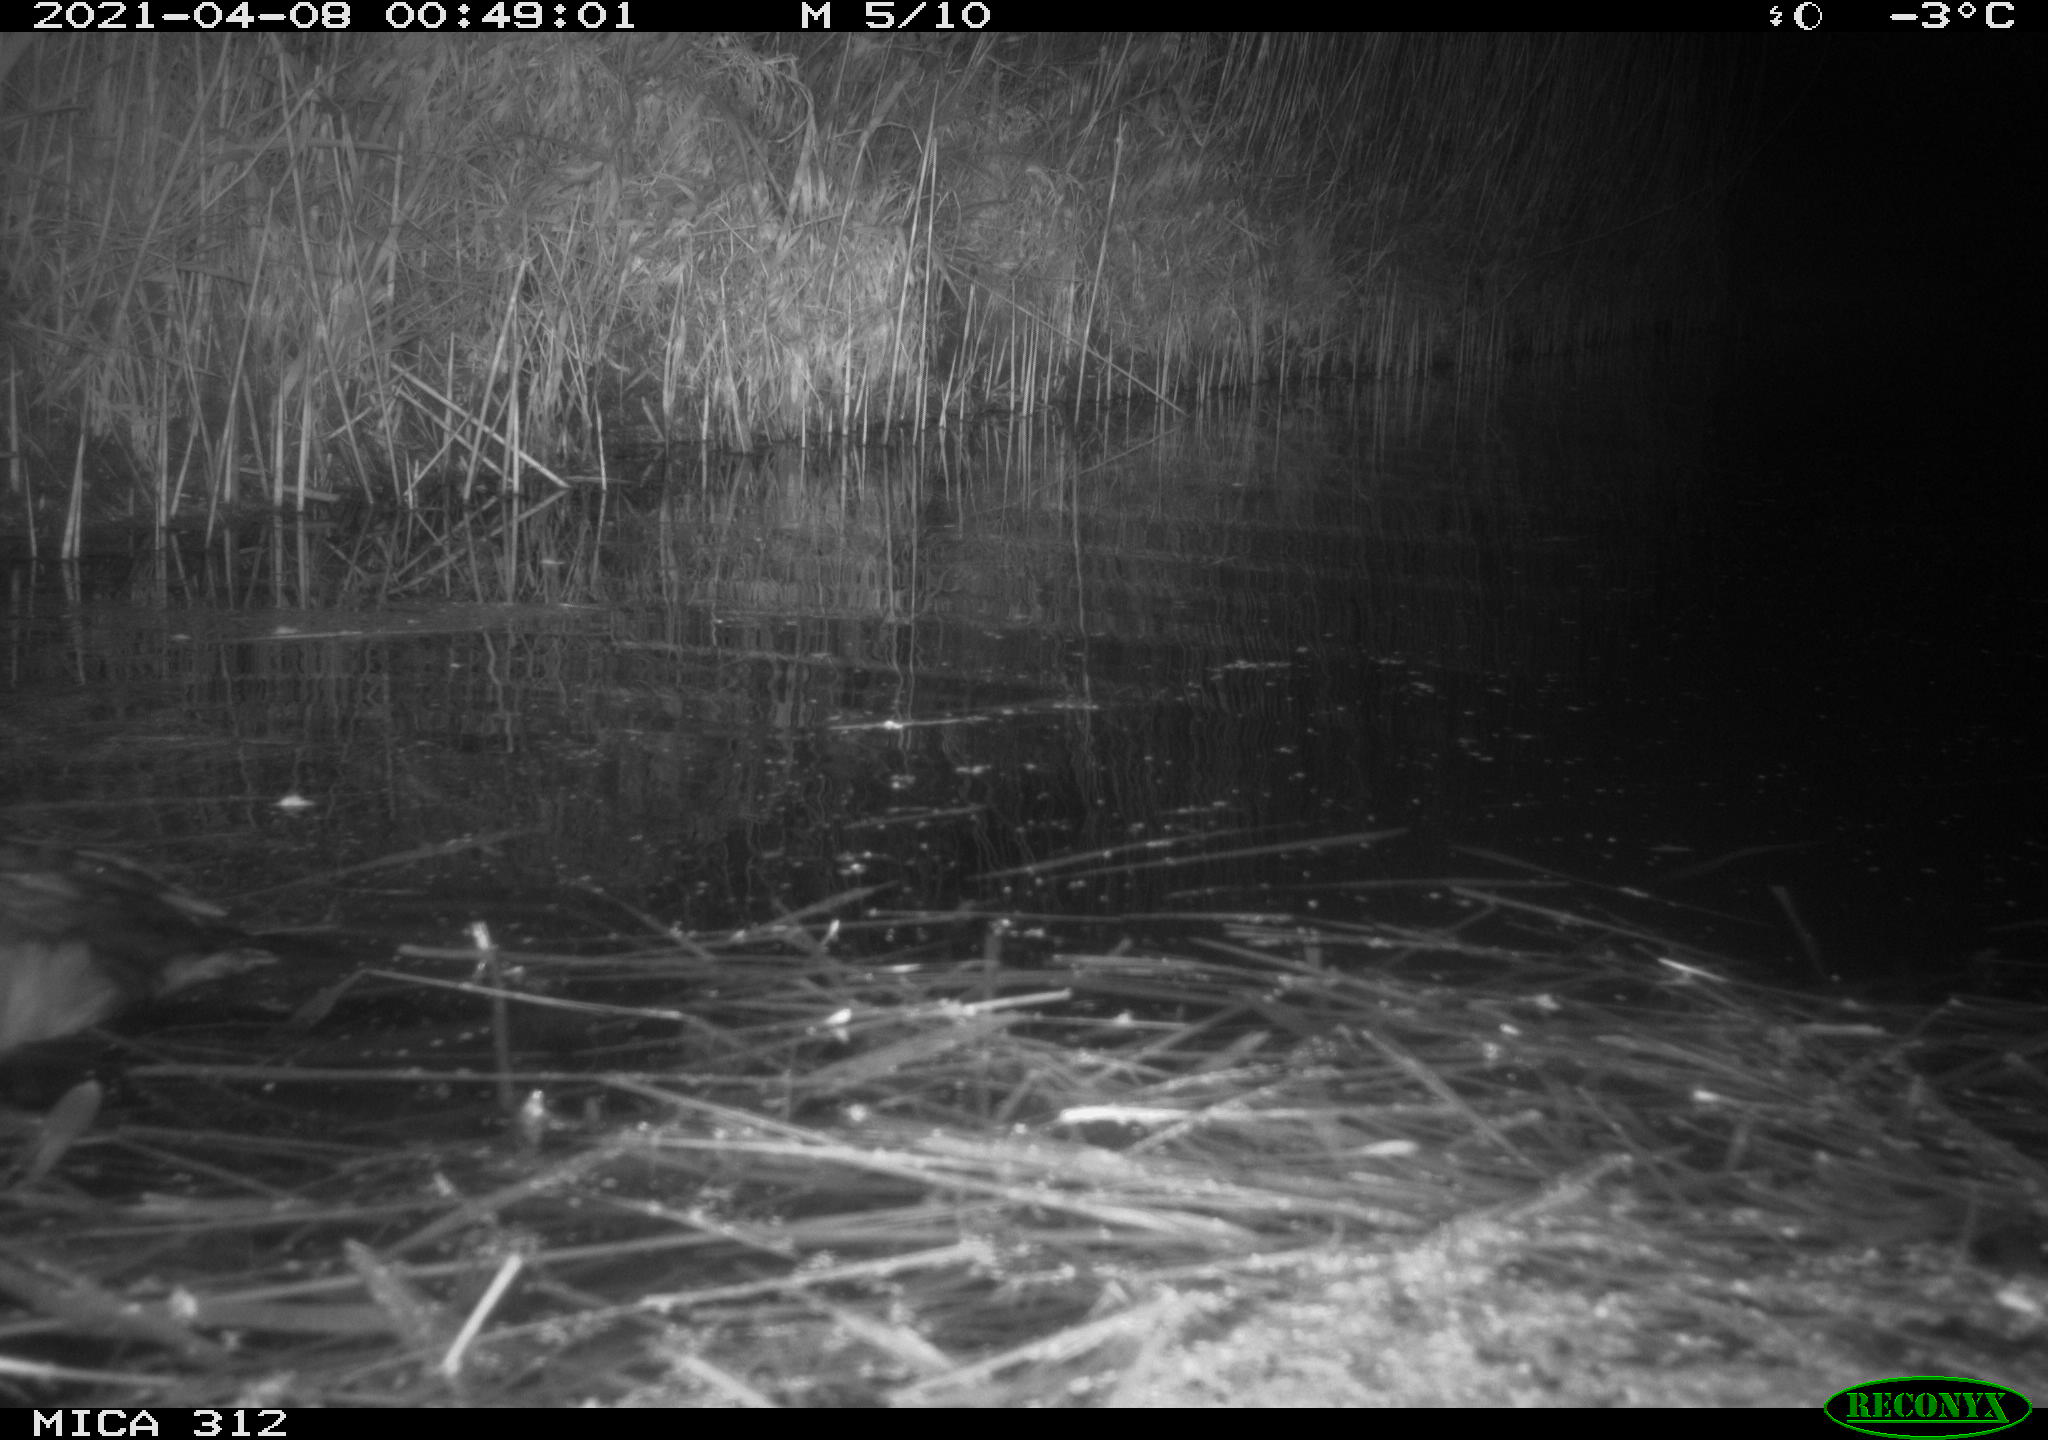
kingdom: Animalia
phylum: Chordata
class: Aves
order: Gruiformes
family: Rallidae
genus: Fulica
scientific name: Fulica atra
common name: Eurasian coot
